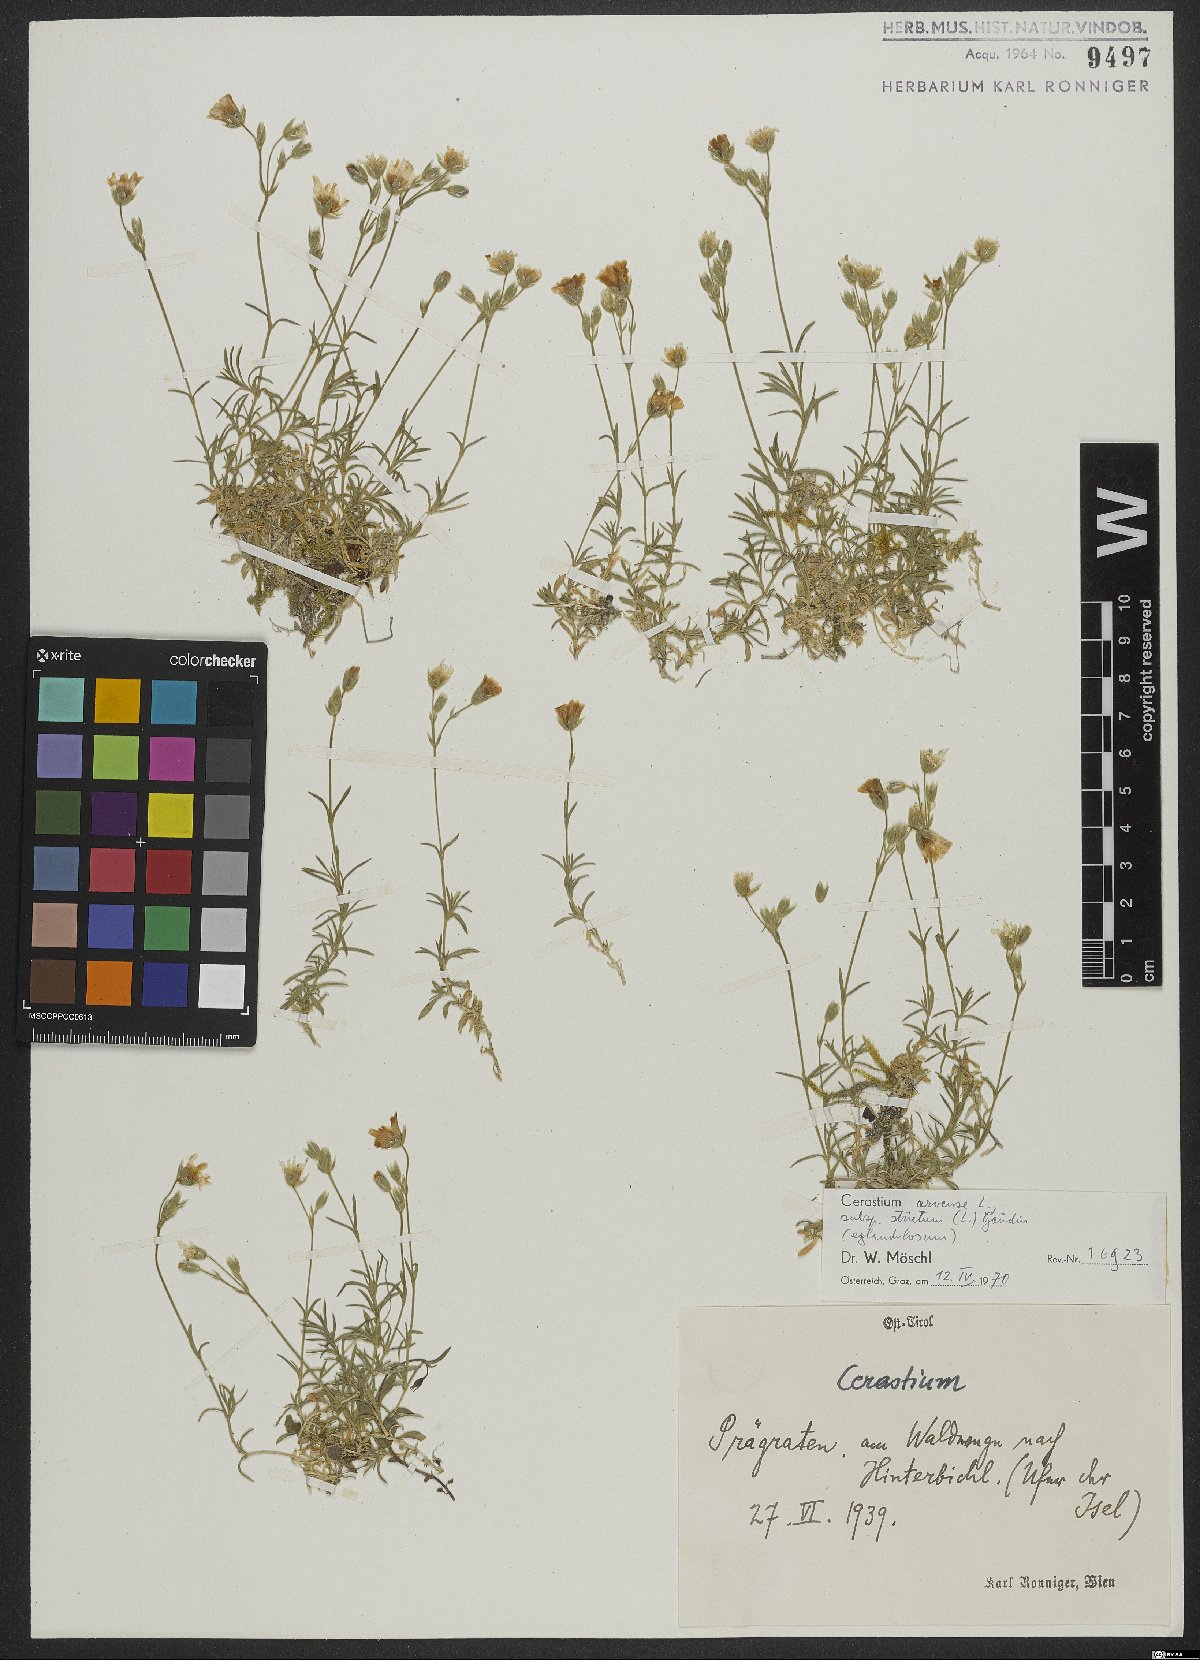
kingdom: Plantae
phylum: Tracheophyta
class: Magnoliopsida
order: Caryophyllales
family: Caryophyllaceae
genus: Cerastium
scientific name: Cerastium elongatum
